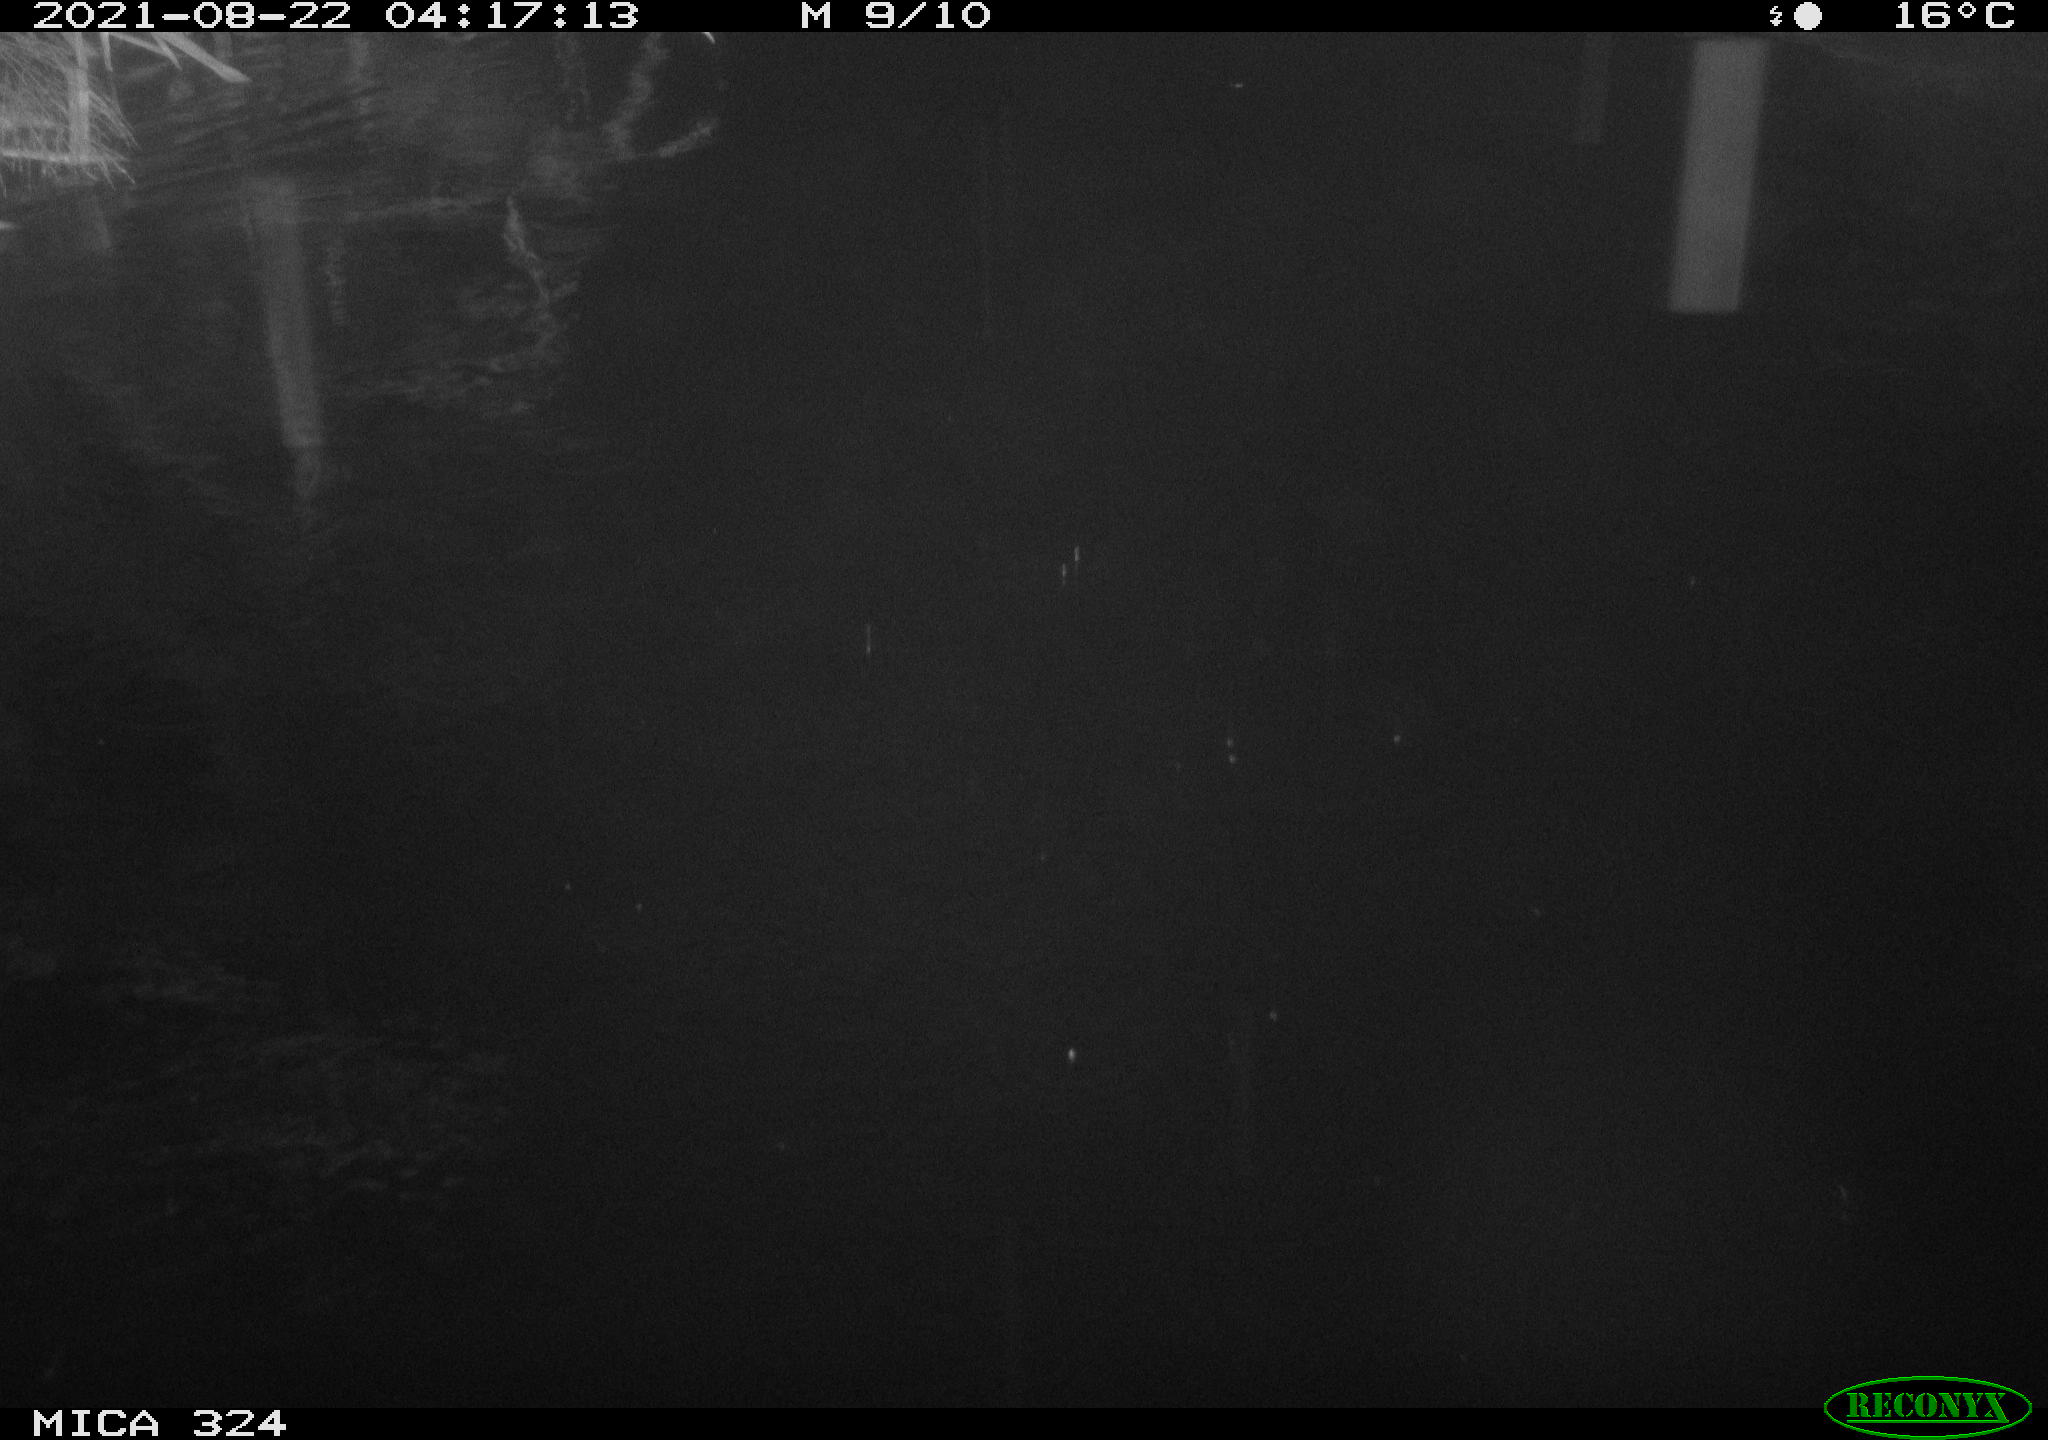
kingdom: Animalia
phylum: Chordata
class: Mammalia
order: Rodentia
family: Cricetidae
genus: Ondatra
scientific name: Ondatra zibethicus
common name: Muskrat
